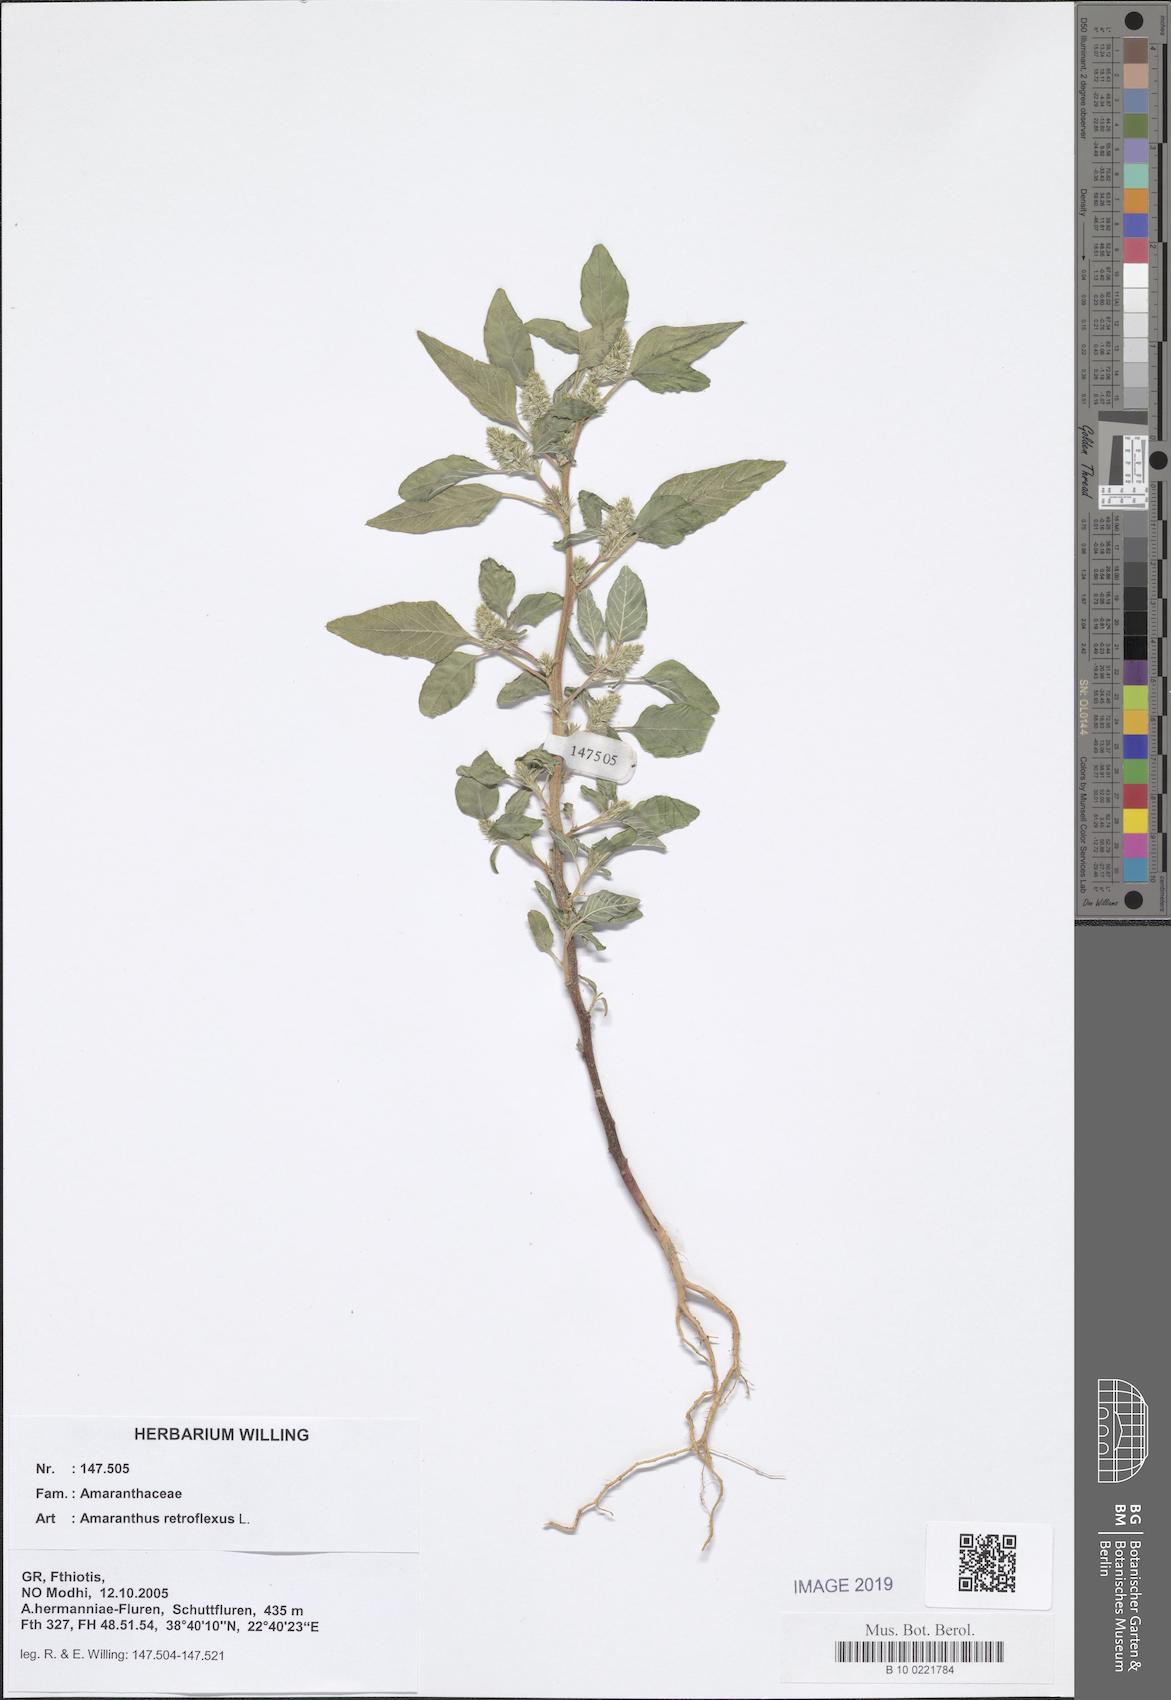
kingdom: Plantae
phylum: Tracheophyta
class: Magnoliopsida
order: Caryophyllales
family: Amaranthaceae
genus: Amaranthus
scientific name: Amaranthus retroflexus
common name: Redroot amaranth
